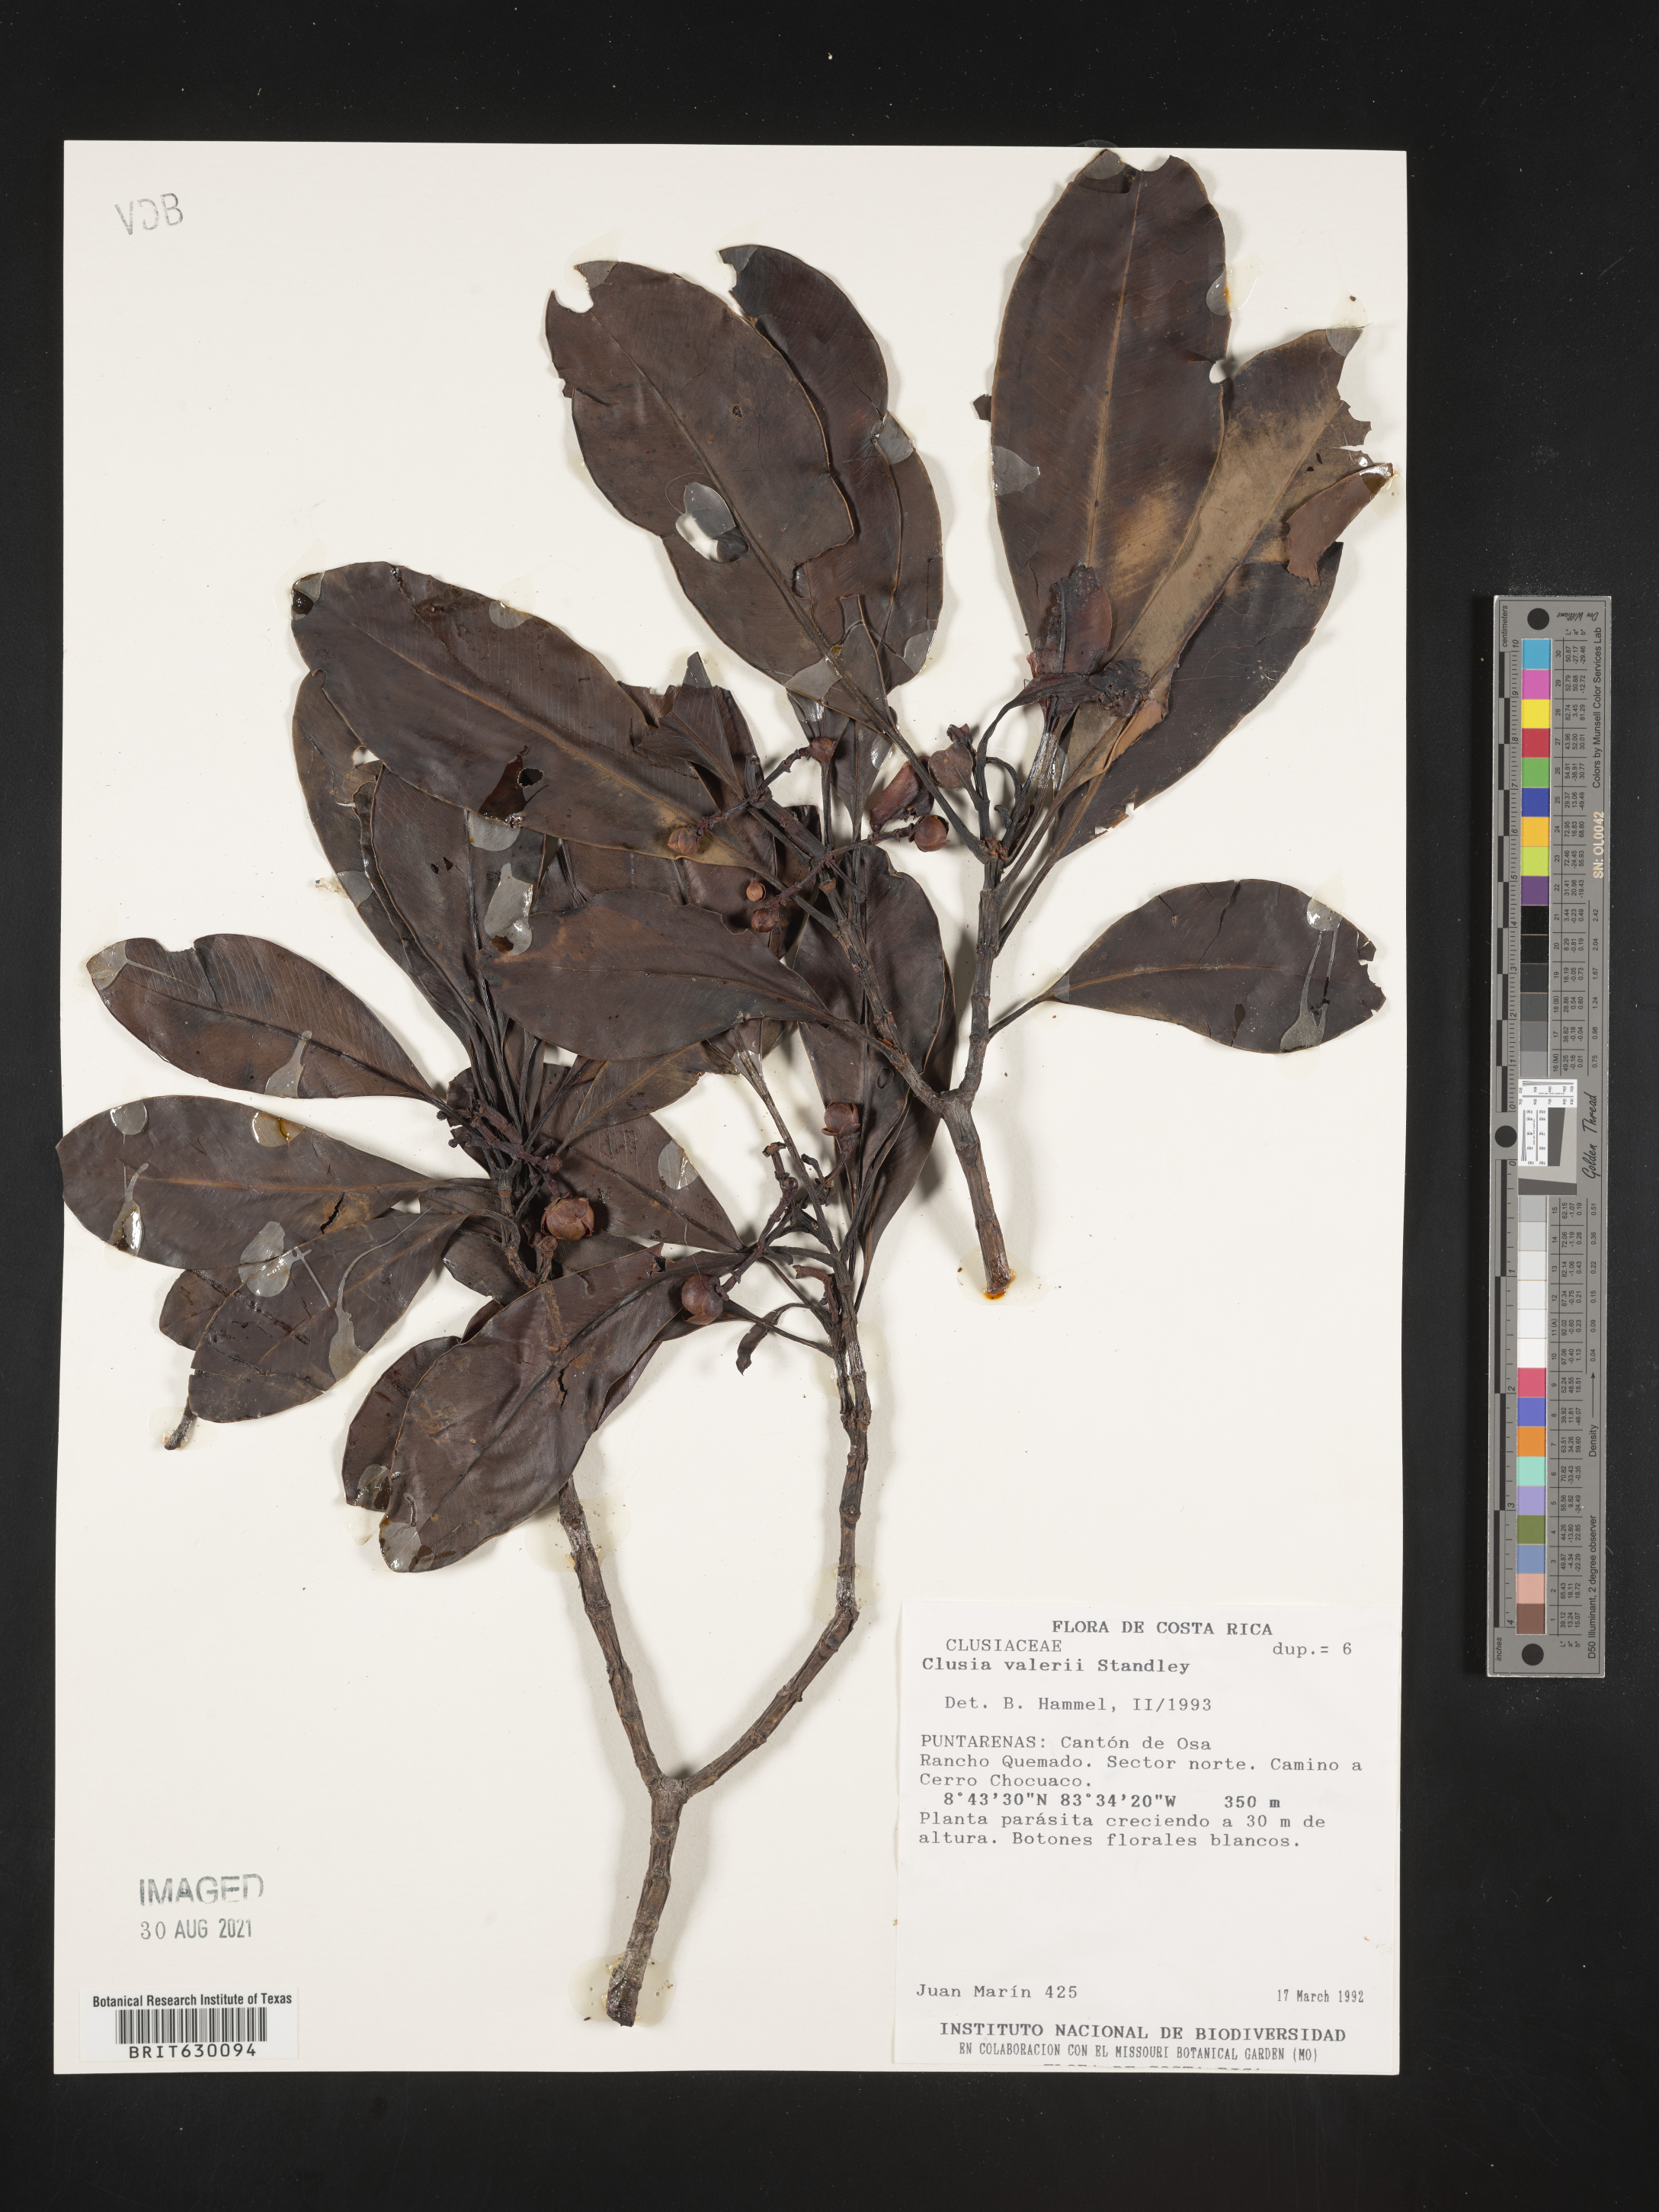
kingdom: Plantae
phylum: Tracheophyta
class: Magnoliopsida
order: Malpighiales
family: Clusiaceae
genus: Clusia
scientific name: Clusia valerioi
